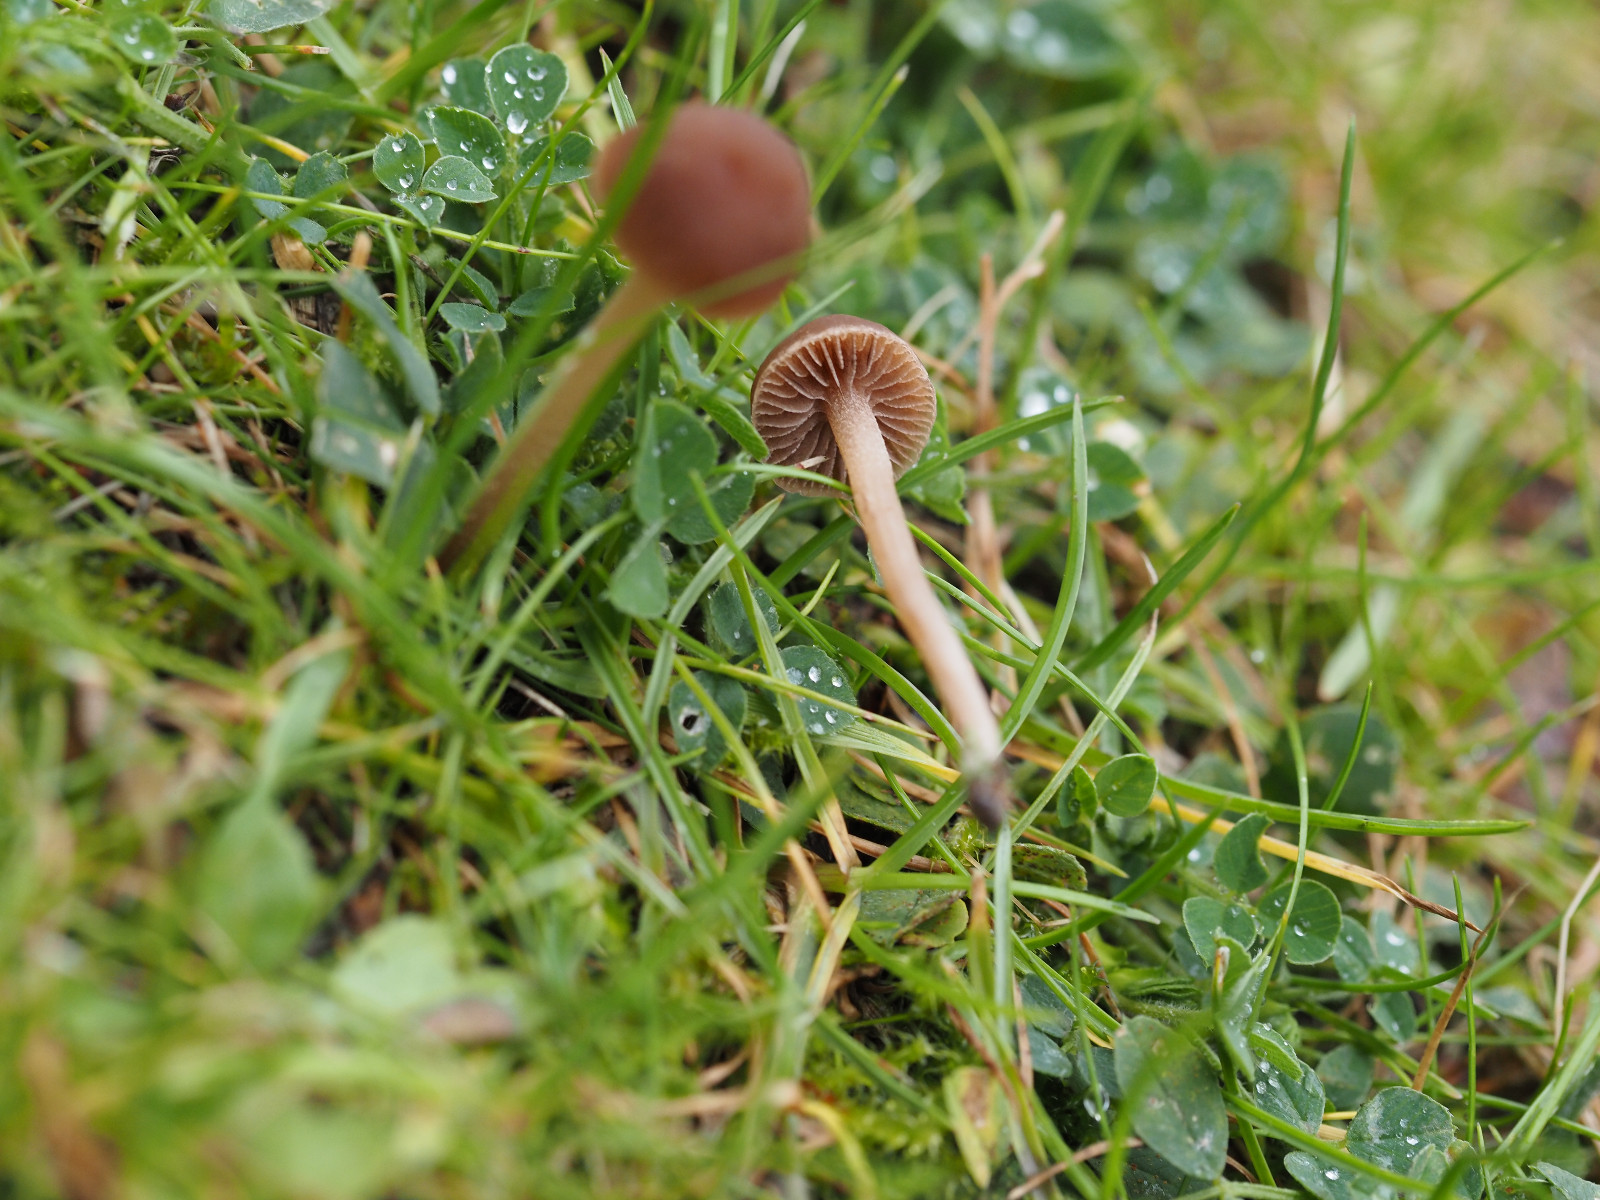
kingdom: Fungi
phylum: Basidiomycota
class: Agaricomycetes
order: Agaricales
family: Bolbitiaceae
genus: Panaeolina
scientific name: Panaeolina foenisecii
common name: høslætsvamp
